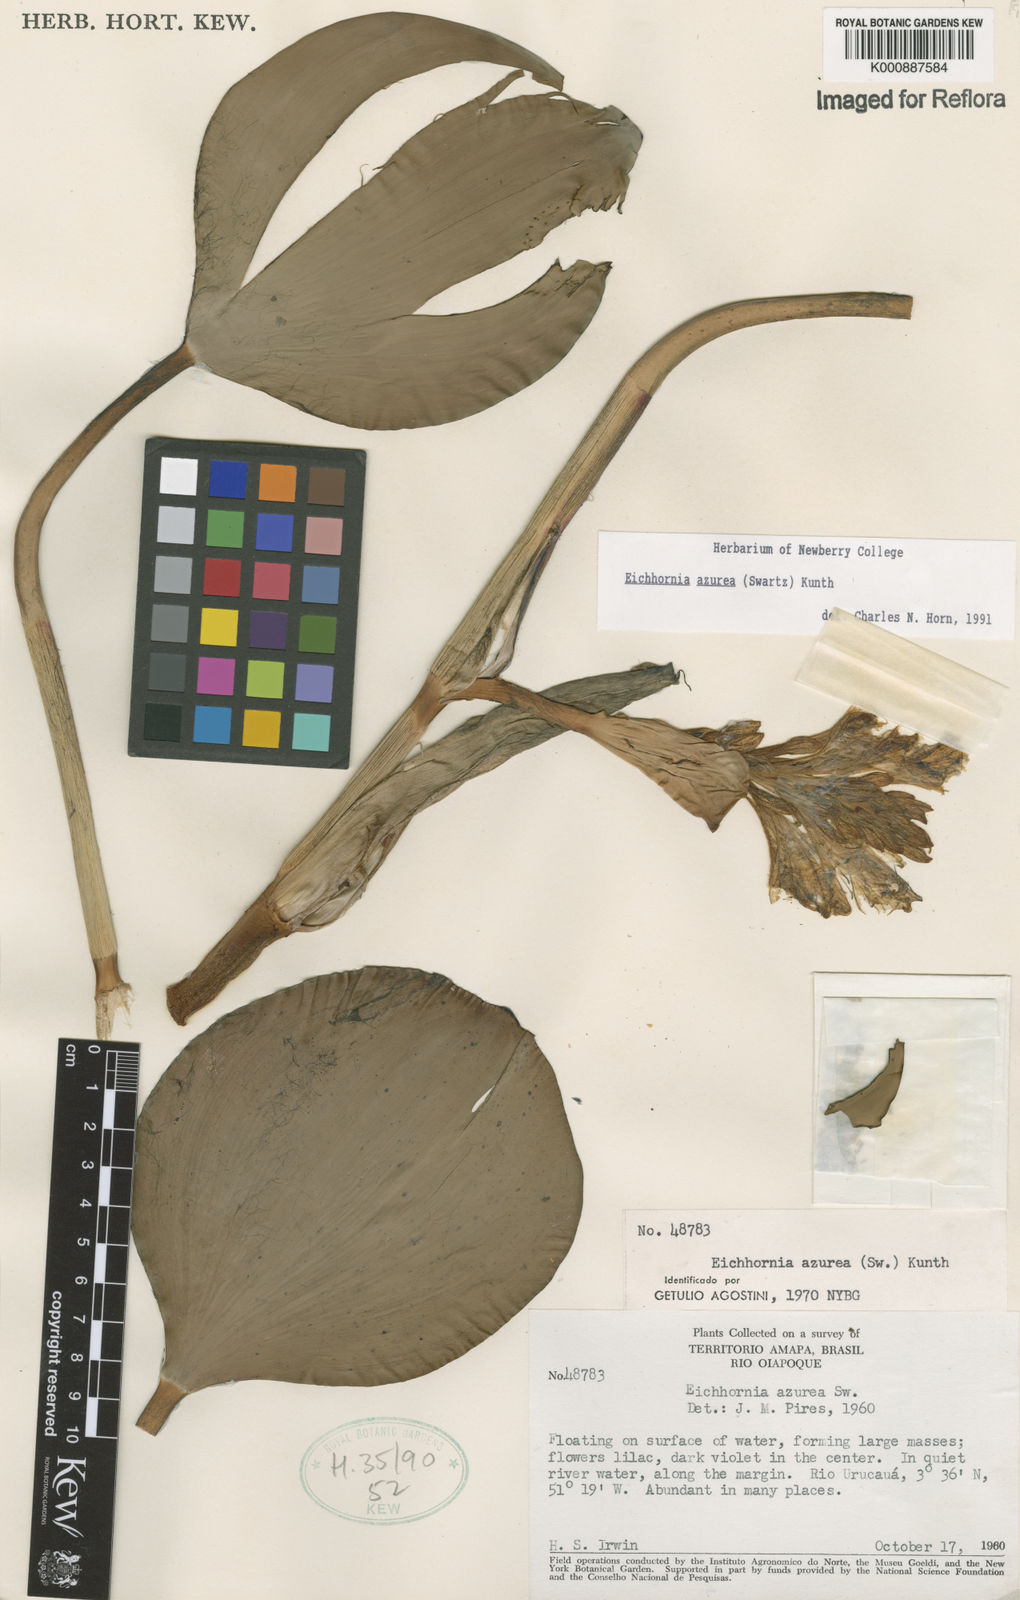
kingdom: Plantae
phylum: Tracheophyta
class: Liliopsida
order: Commelinales
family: Pontederiaceae
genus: Pontederia
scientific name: Pontederia azurea
